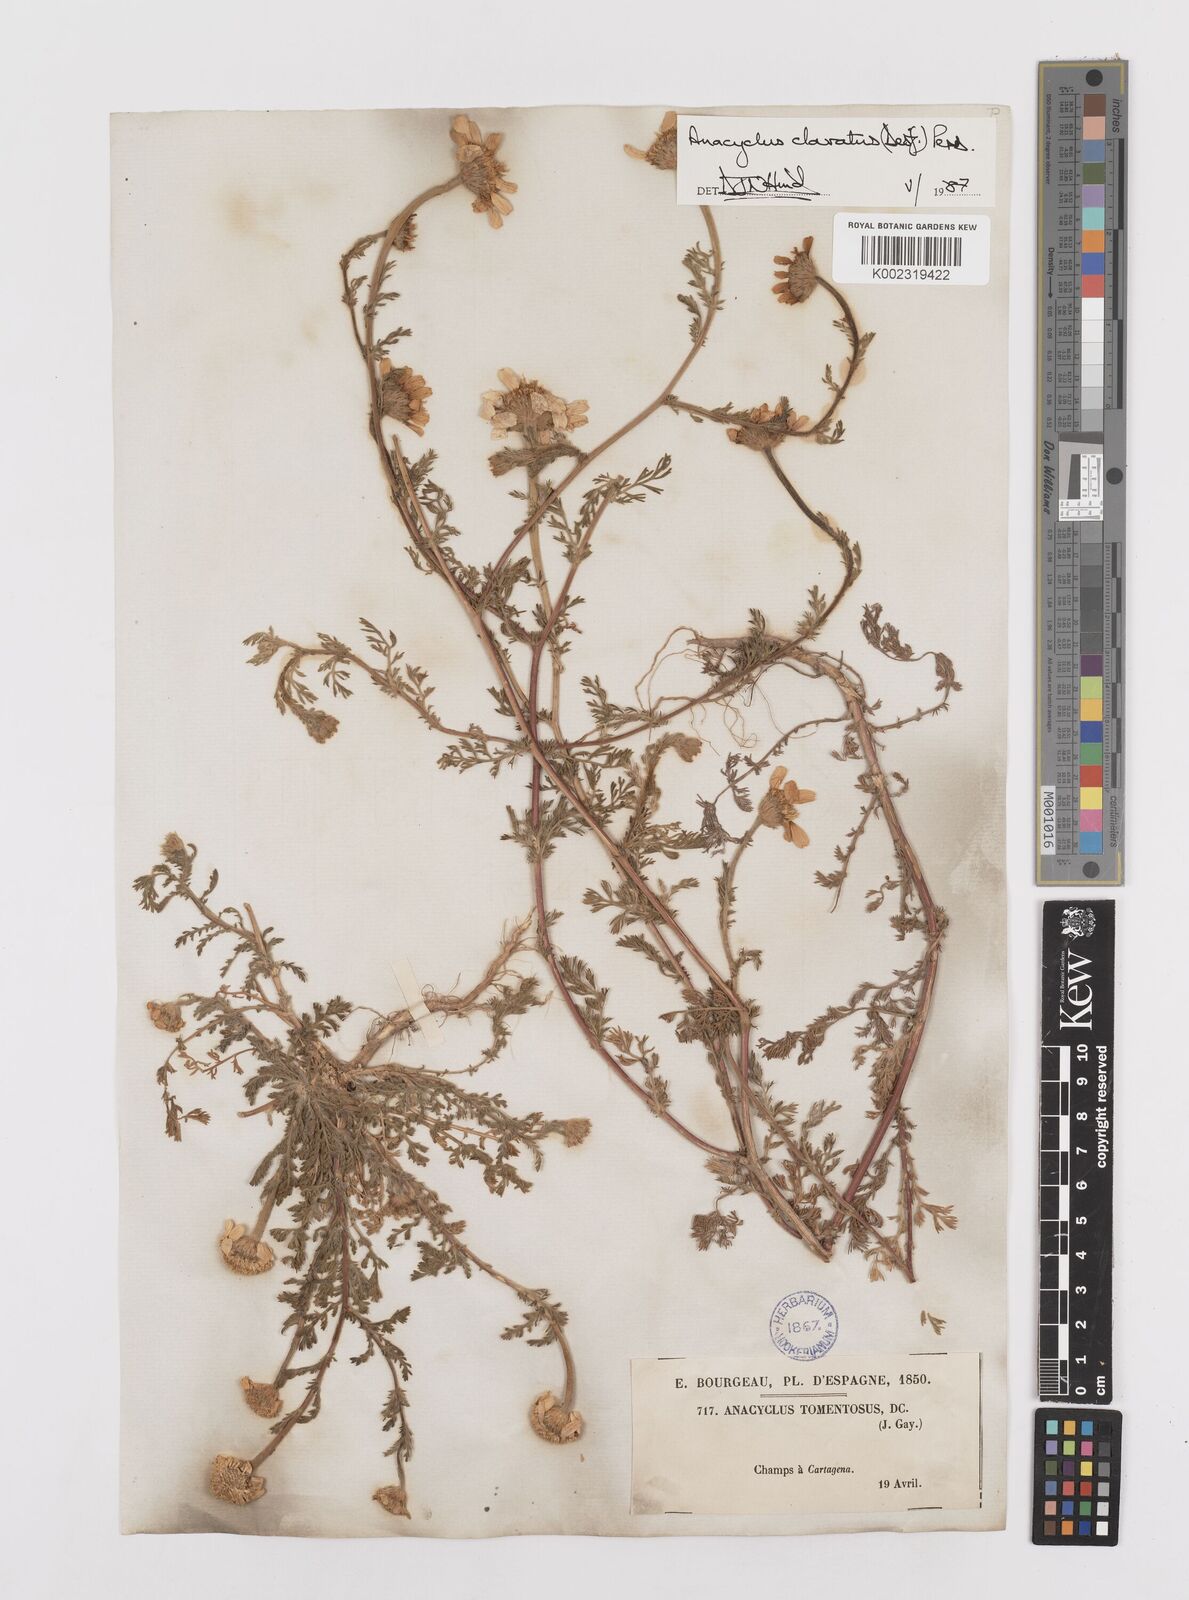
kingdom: Plantae
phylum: Tracheophyta
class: Magnoliopsida
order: Asterales
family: Asteraceae
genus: Anacyclus
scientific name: Anacyclus clavatus
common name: Whitebuttons
